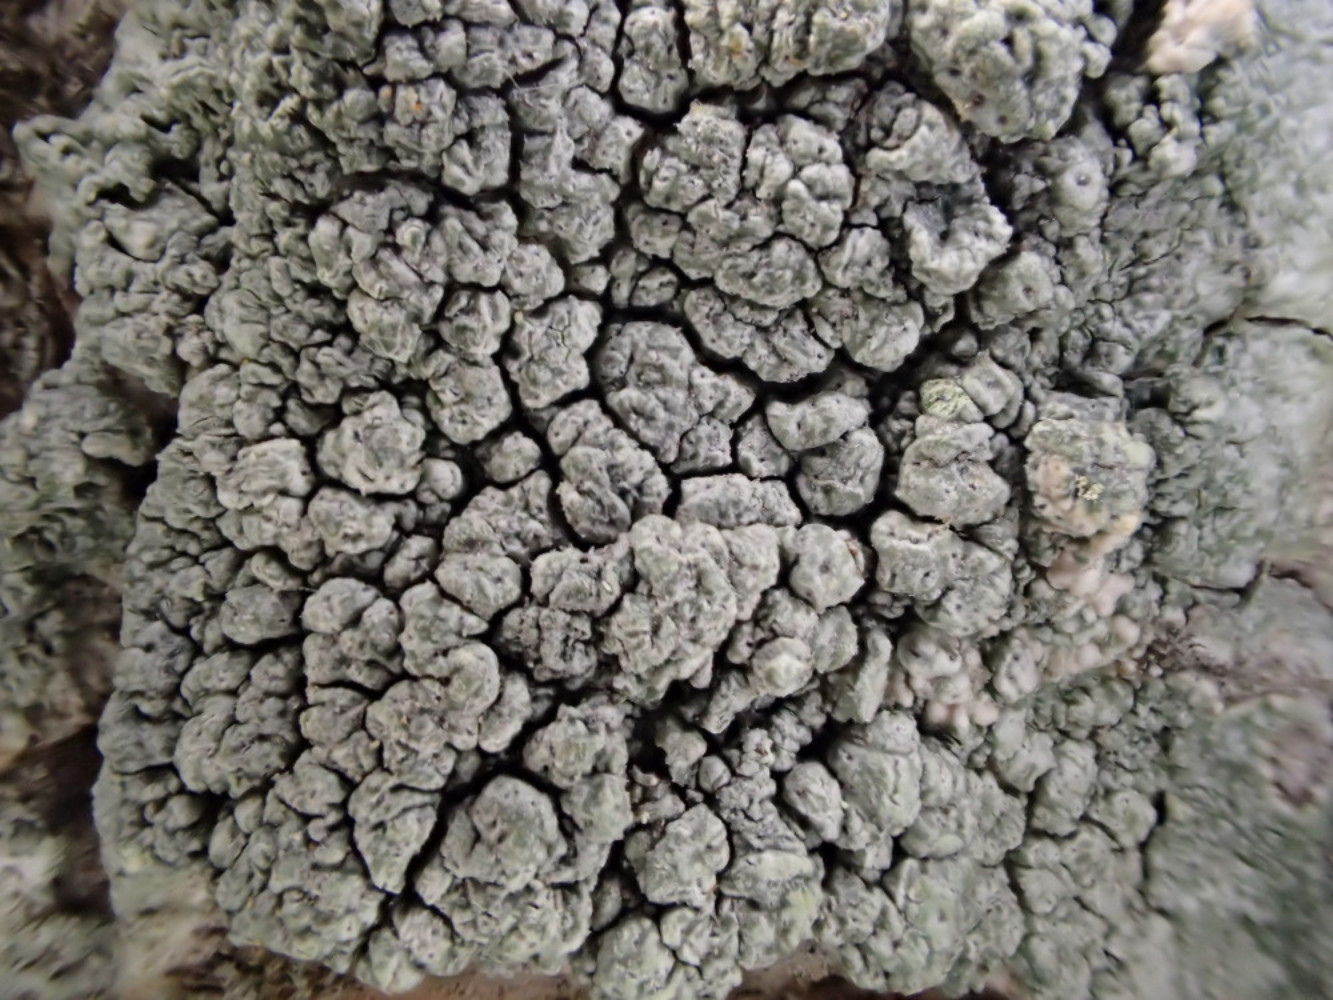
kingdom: Fungi
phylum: Ascomycota
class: Lecanoromycetes
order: Pertusariales
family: Pertusariaceae
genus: Pertusaria
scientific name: Pertusaria pertusa
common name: almindelig prikvortelav
